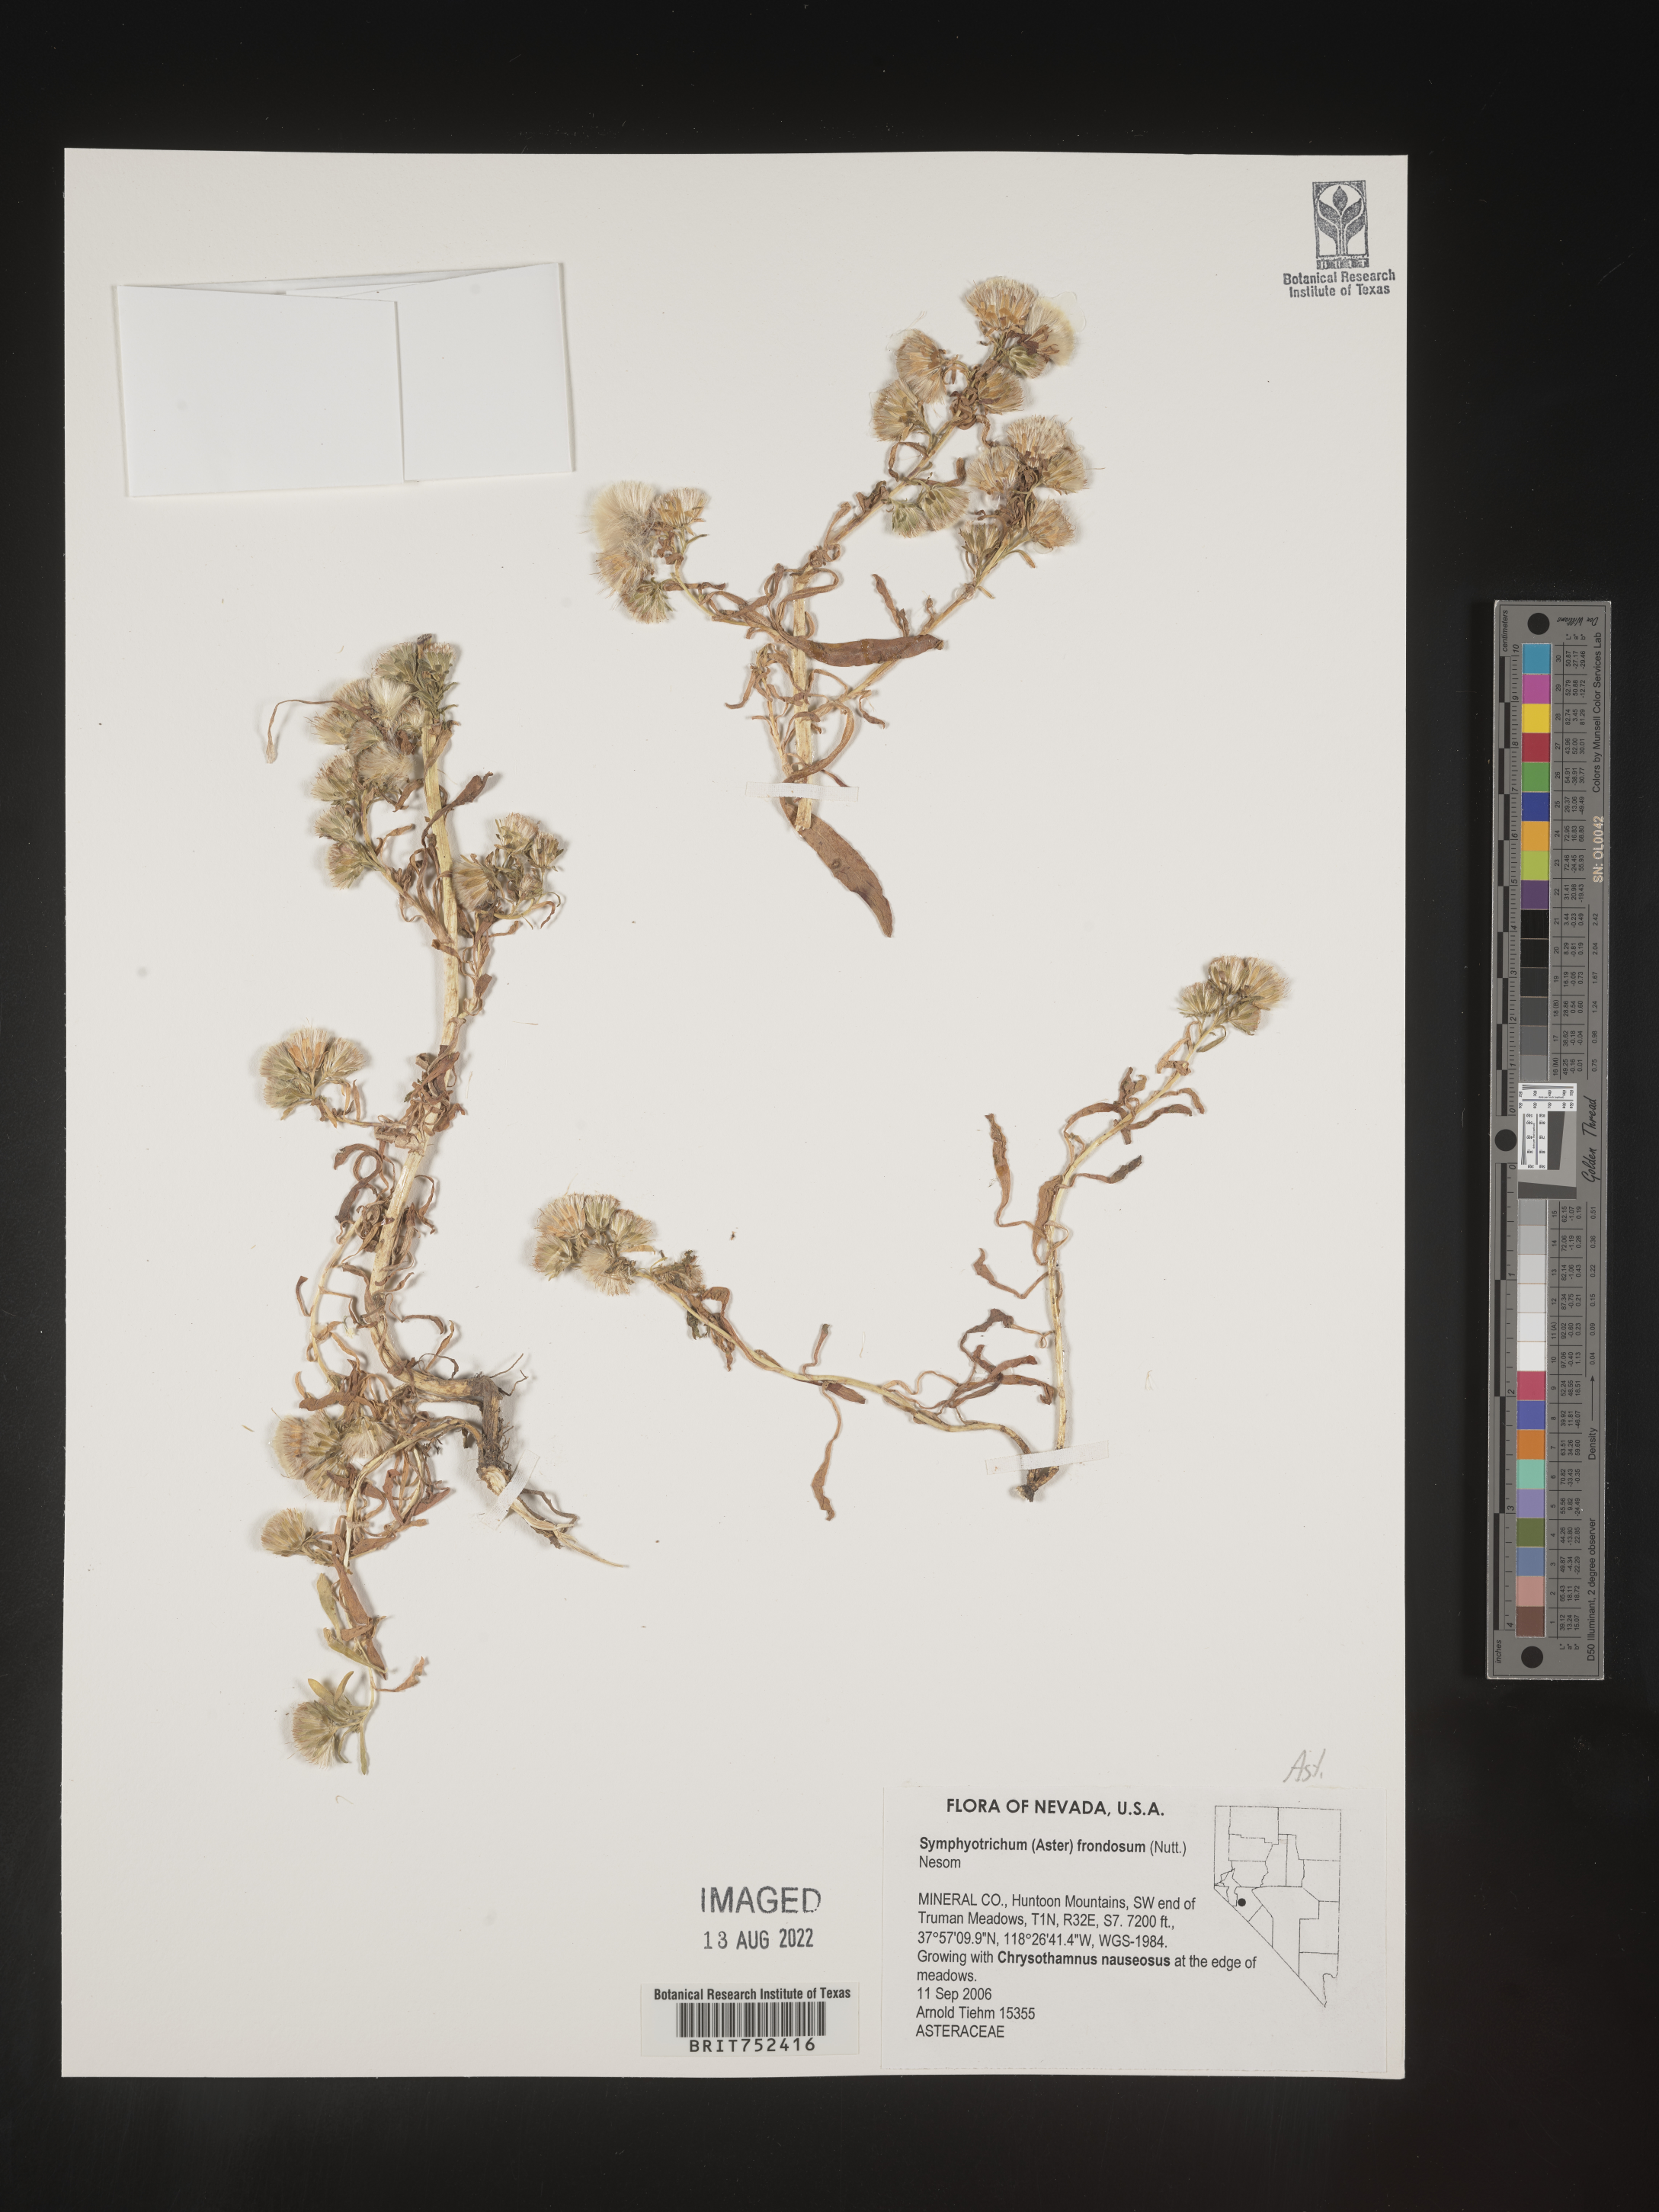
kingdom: Plantae
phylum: Tracheophyta
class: Magnoliopsida
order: Asterales
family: Asteraceae
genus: Symphyotrichum
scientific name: Symphyotrichum frondosum
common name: Leafy aster
